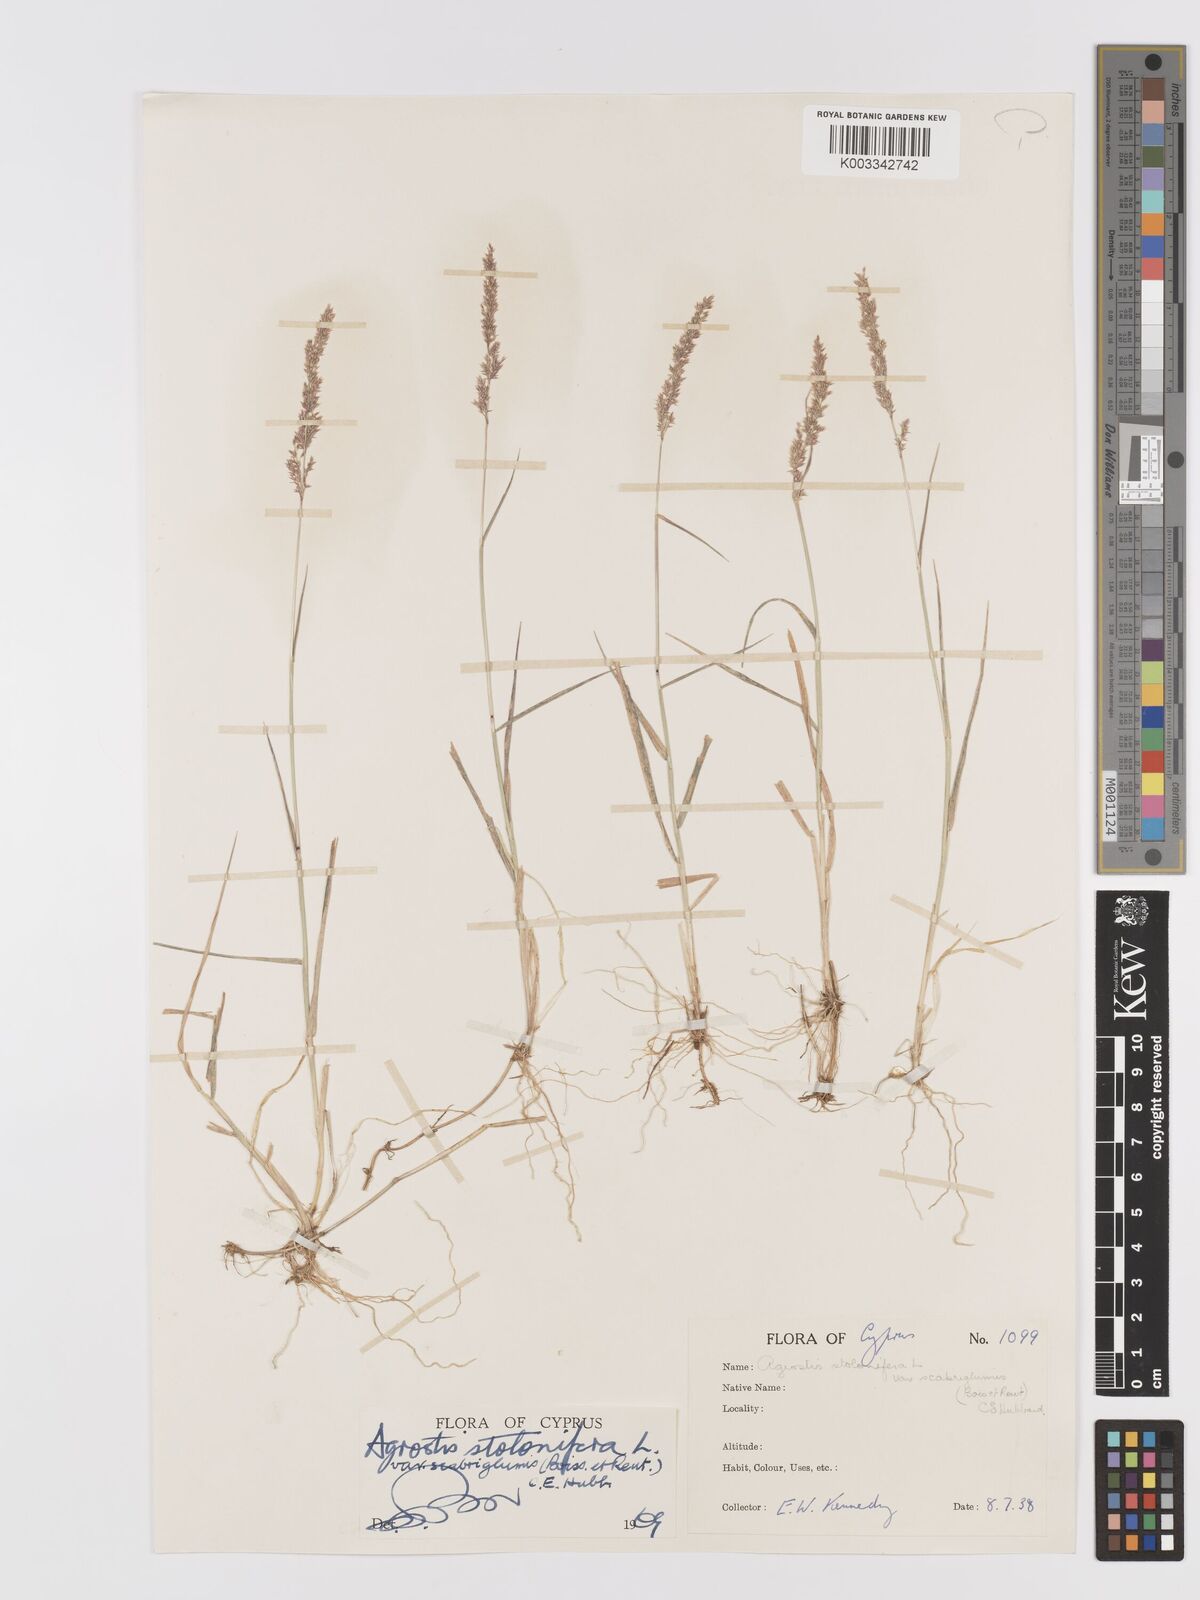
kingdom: Plantae
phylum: Tracheophyta
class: Liliopsida
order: Poales
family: Poaceae
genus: Agrostis
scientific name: Agrostis stolonifera
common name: Creeping bentgrass
